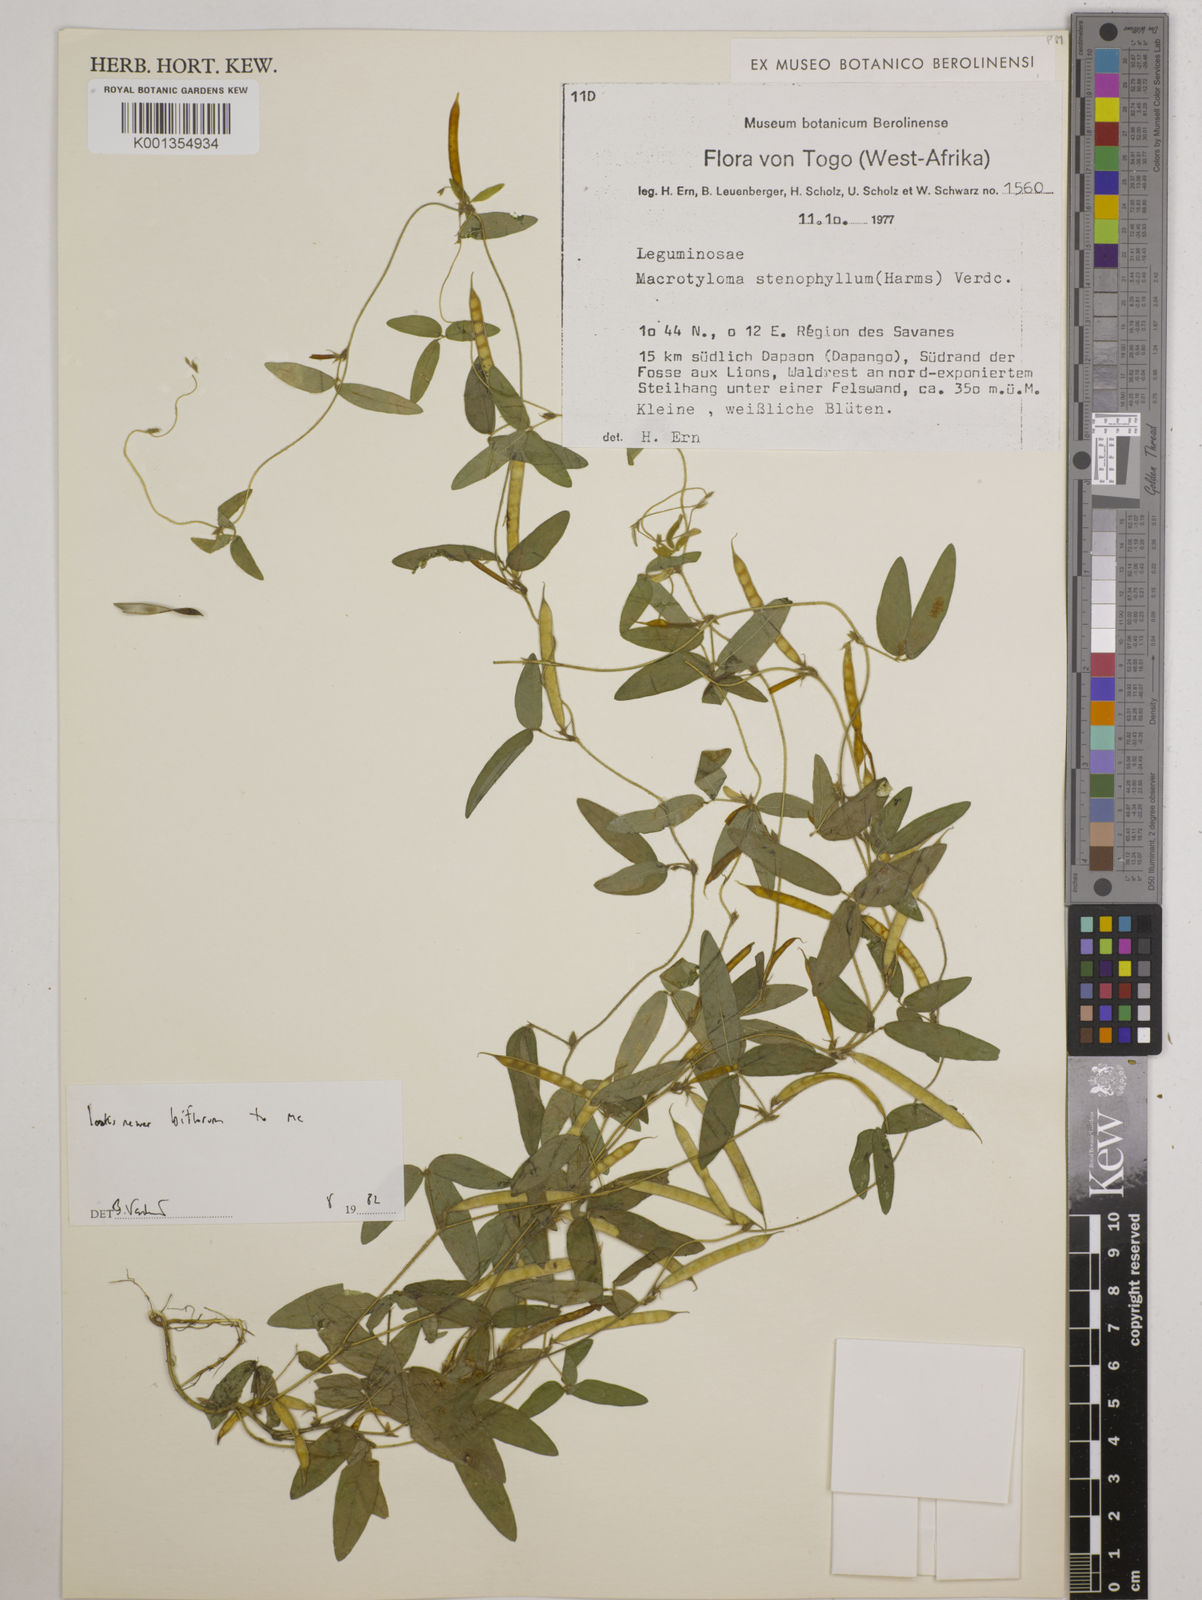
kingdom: Plantae
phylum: Tracheophyta
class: Magnoliopsida
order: Fabales
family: Fabaceae
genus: Macrotyloma
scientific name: Macrotyloma stenophyllum
